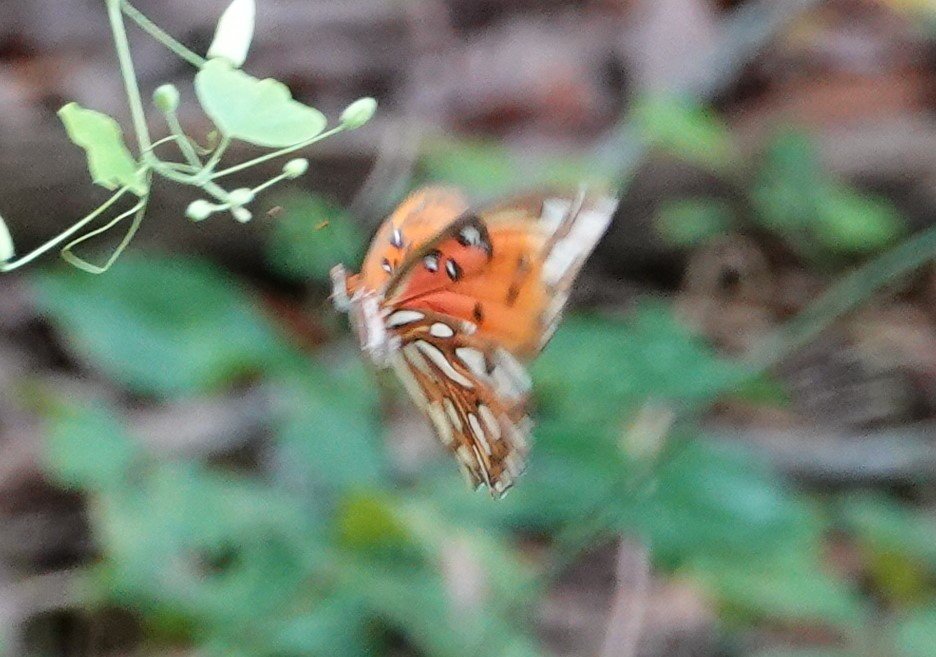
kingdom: Animalia
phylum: Arthropoda
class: Insecta
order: Lepidoptera
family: Nymphalidae
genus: Dione
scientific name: Dione vanillae
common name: Gulf Fritillary
